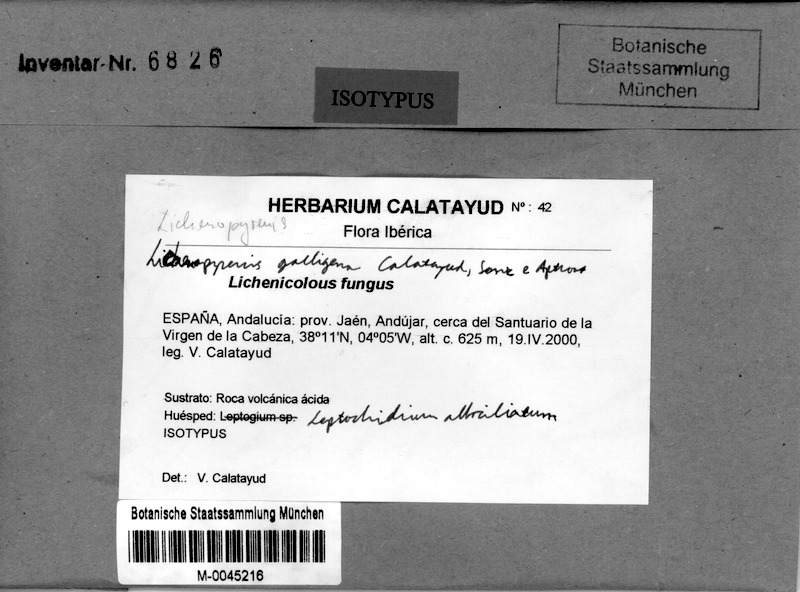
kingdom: Fungi
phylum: Ascomycota
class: Lecanoromycetes
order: Peltigerales
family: Massalongiaceae
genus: Leptochidium
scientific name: Leptochidium albociliatum
